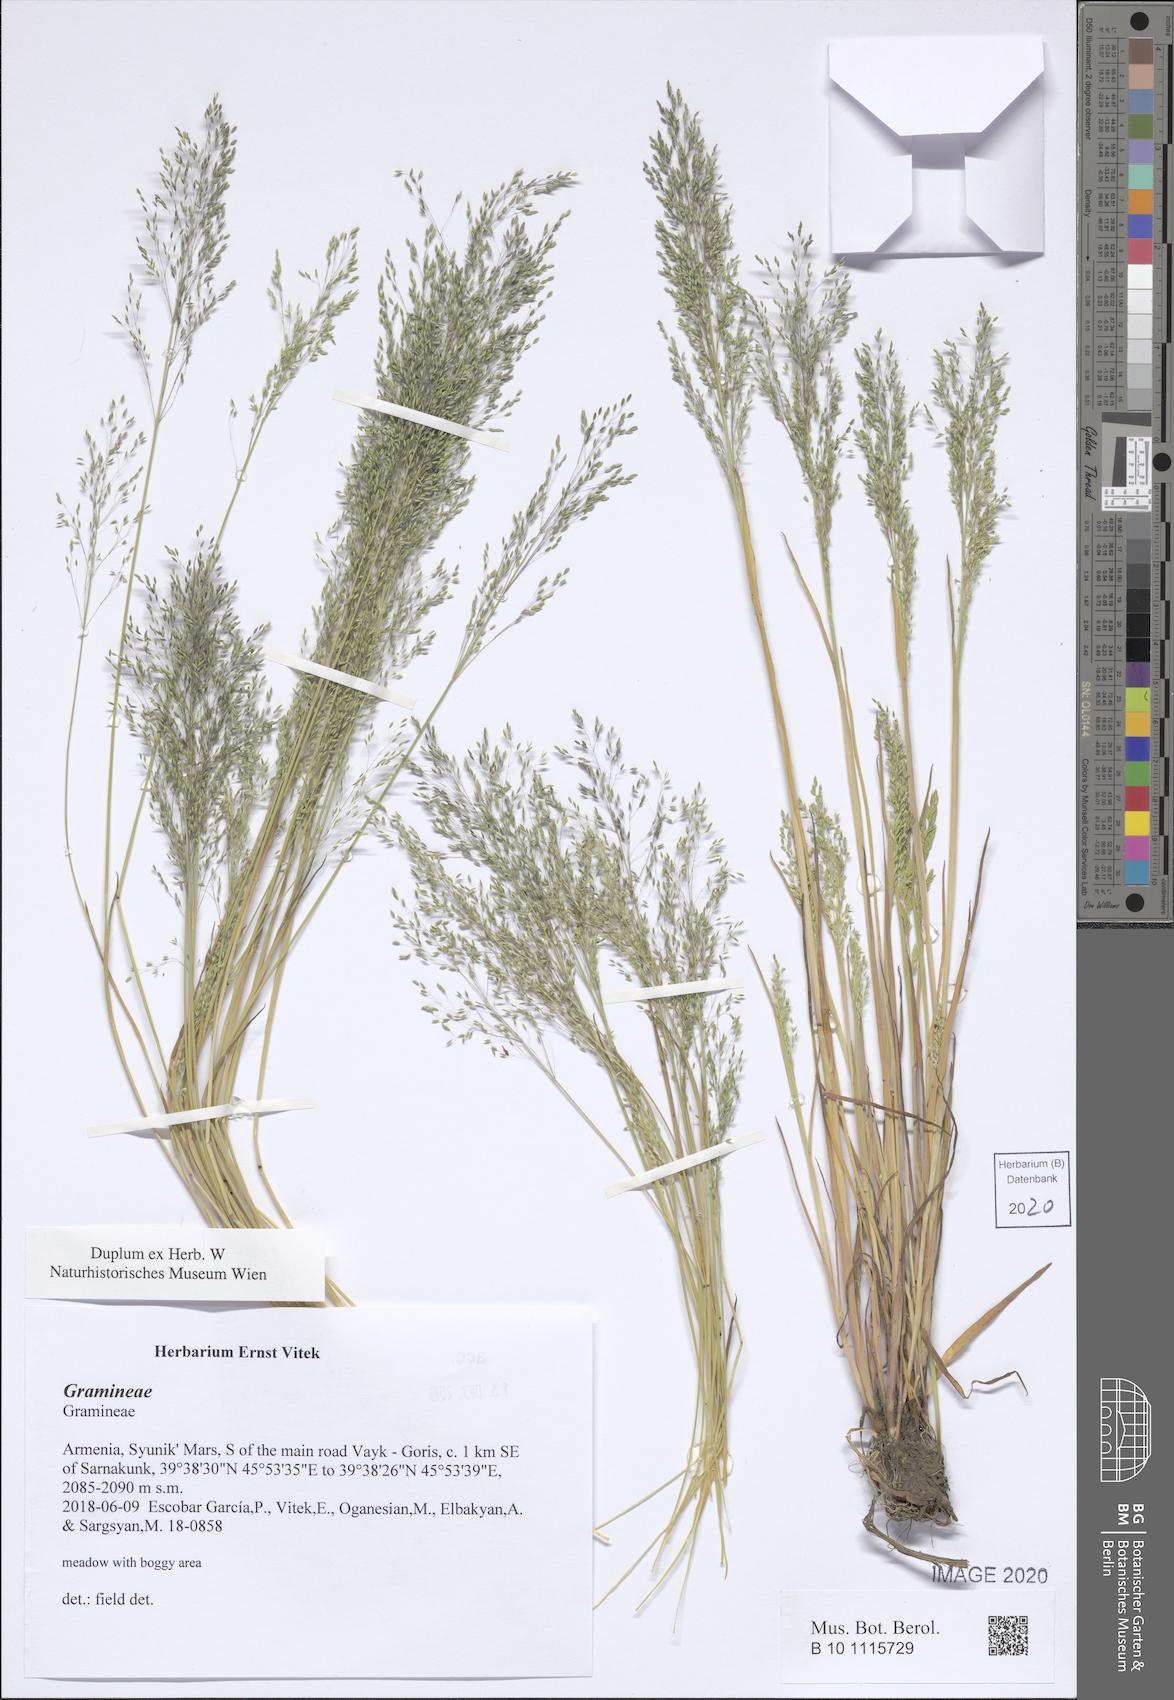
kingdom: Plantae
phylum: Tracheophyta
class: Liliopsida
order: Poales
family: Poaceae
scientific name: Poaceae
